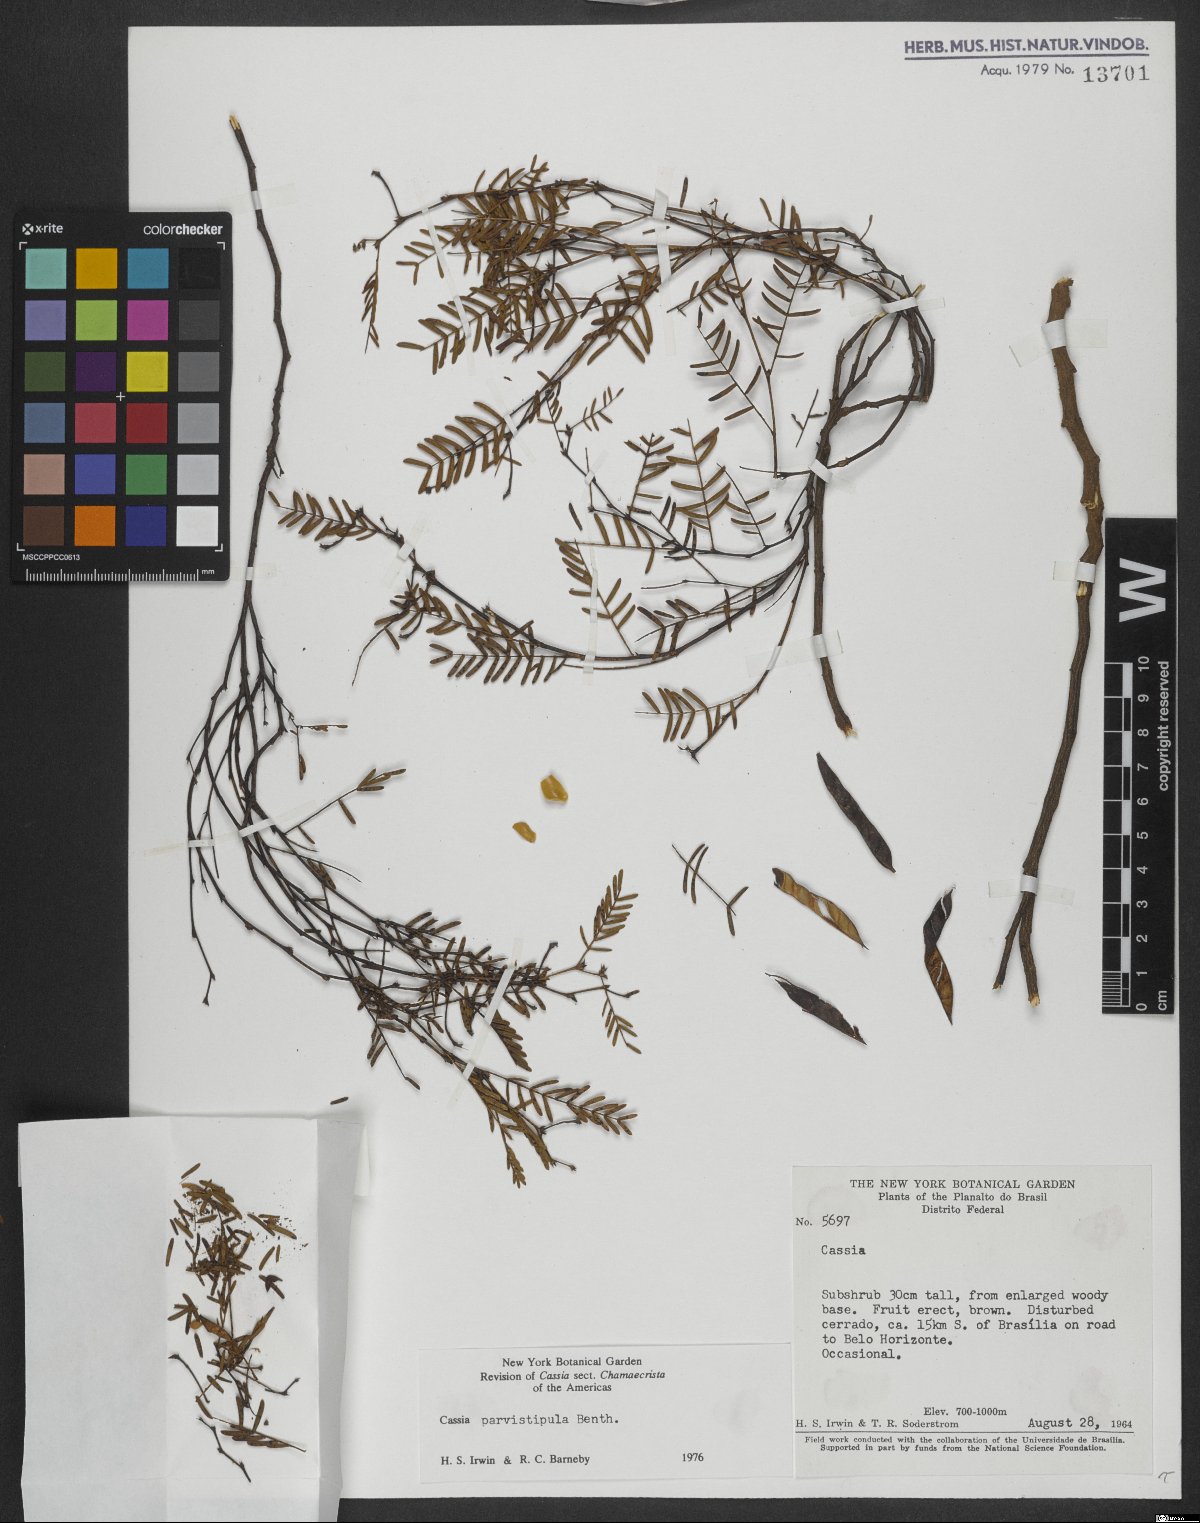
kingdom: Plantae
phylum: Tracheophyta
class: Magnoliopsida
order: Fabales
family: Fabaceae
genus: Chamaecrista
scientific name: Chamaecrista parvistipula
